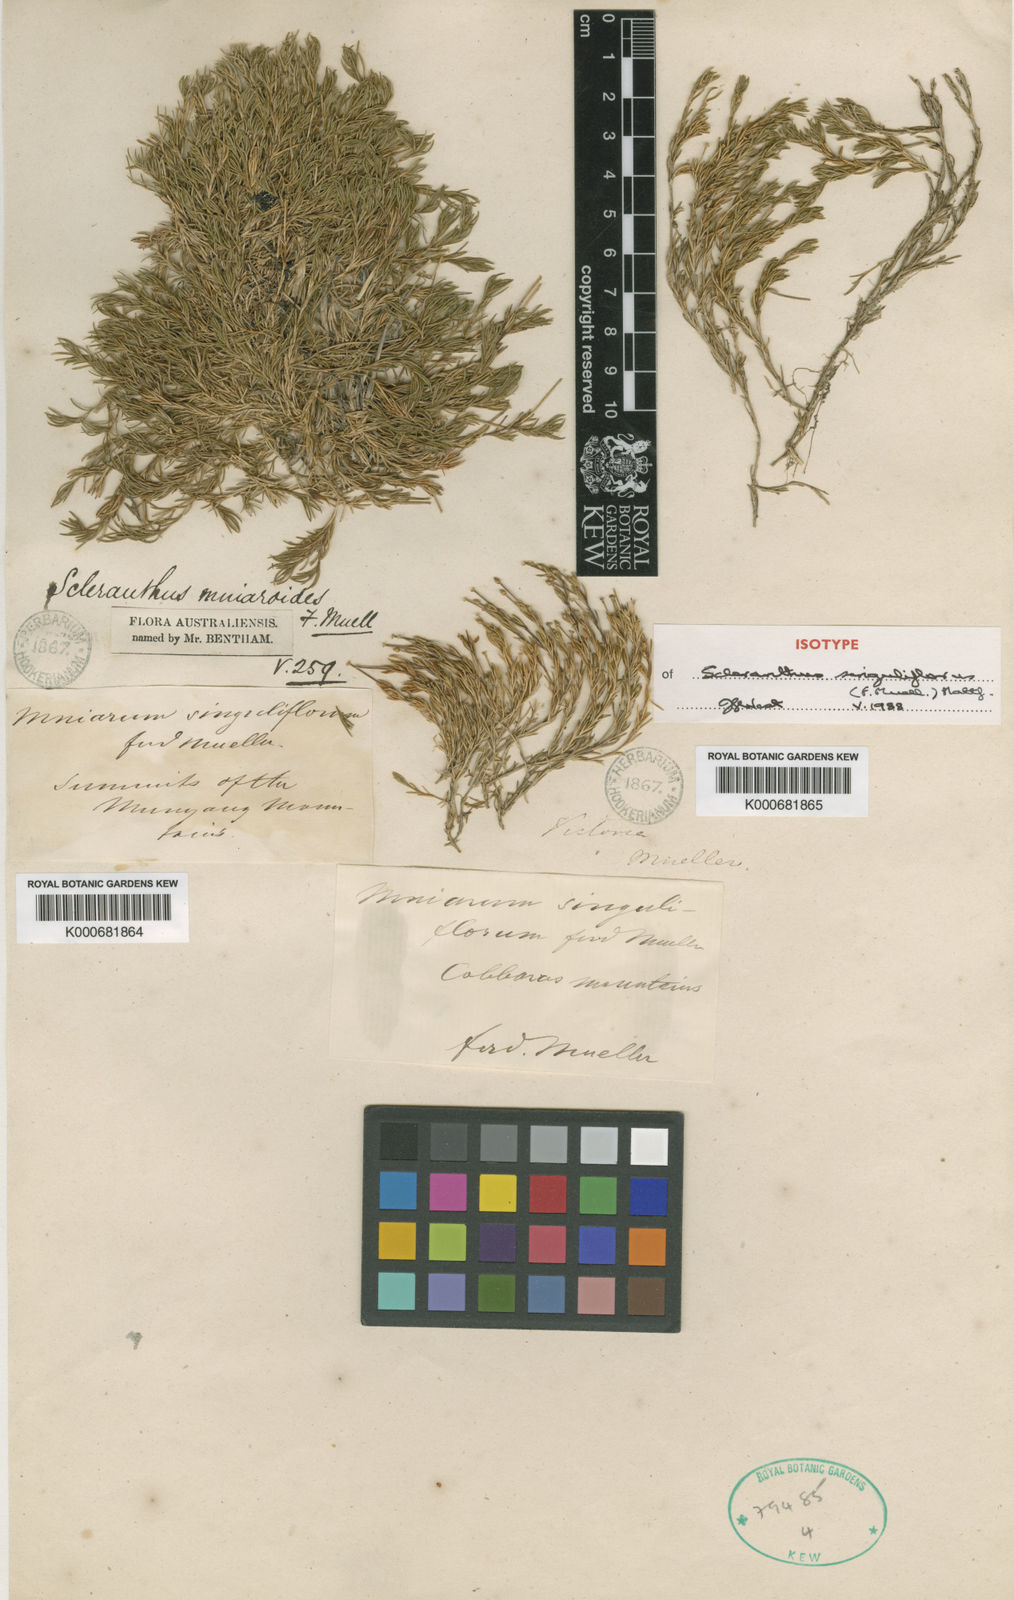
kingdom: Plantae
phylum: Tracheophyta
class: Magnoliopsida
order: Caryophyllales
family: Caryophyllaceae
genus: Scleranthus
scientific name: Scleranthus singuliflorus
